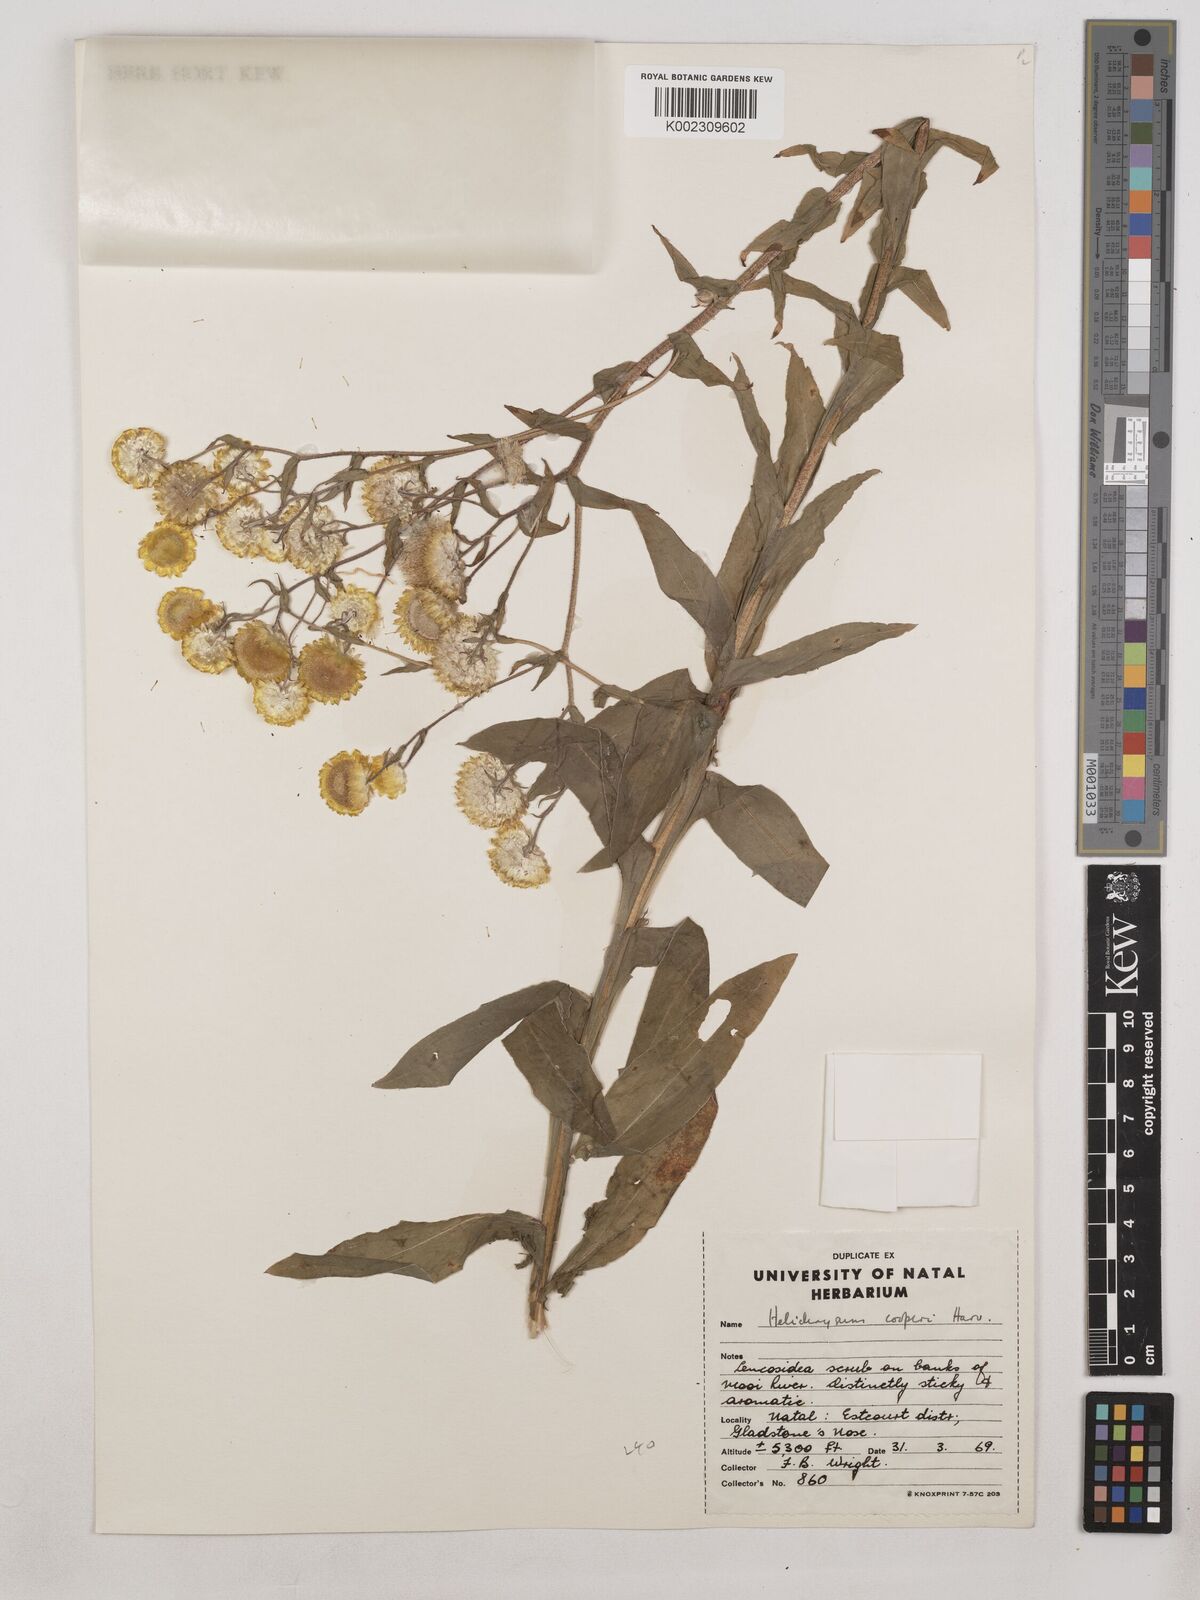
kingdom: Plantae
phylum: Tracheophyta
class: Magnoliopsida
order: Asterales
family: Asteraceae
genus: Helichrysum
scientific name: Helichrysum cooperi
